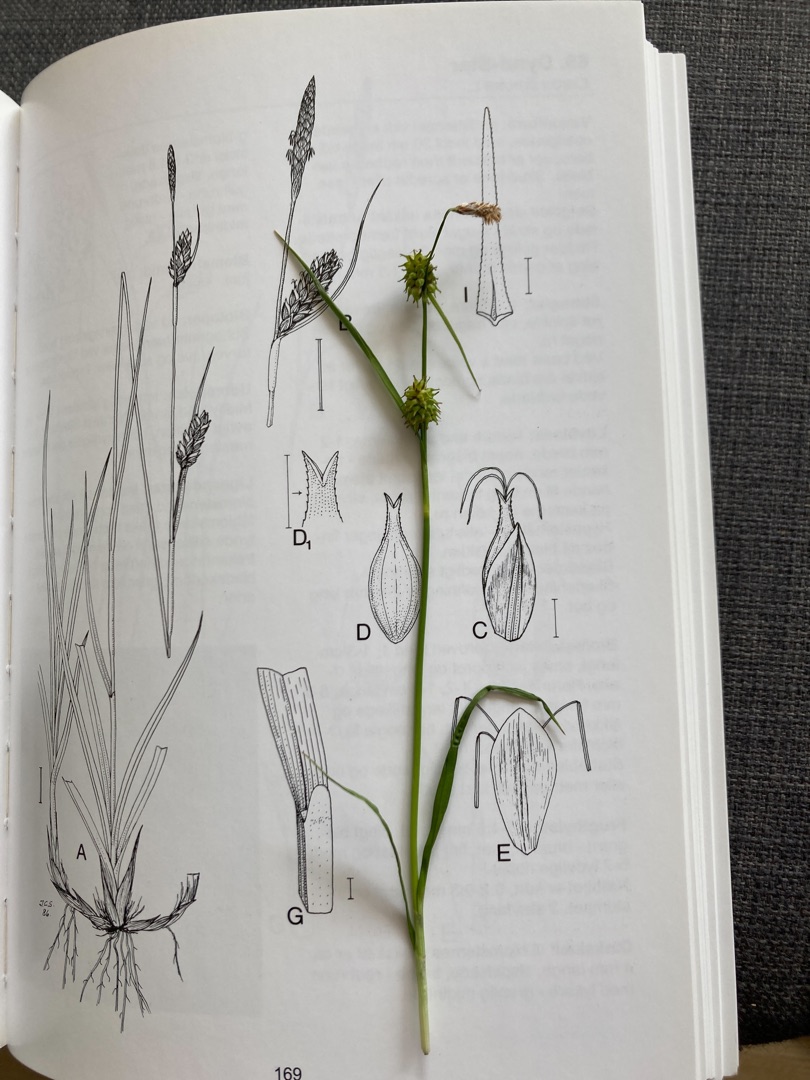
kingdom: Plantae
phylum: Tracheophyta
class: Liliopsida
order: Poales
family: Cyperaceae
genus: Carex
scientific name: Carex lepidocarpa
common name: Krognæb-star
